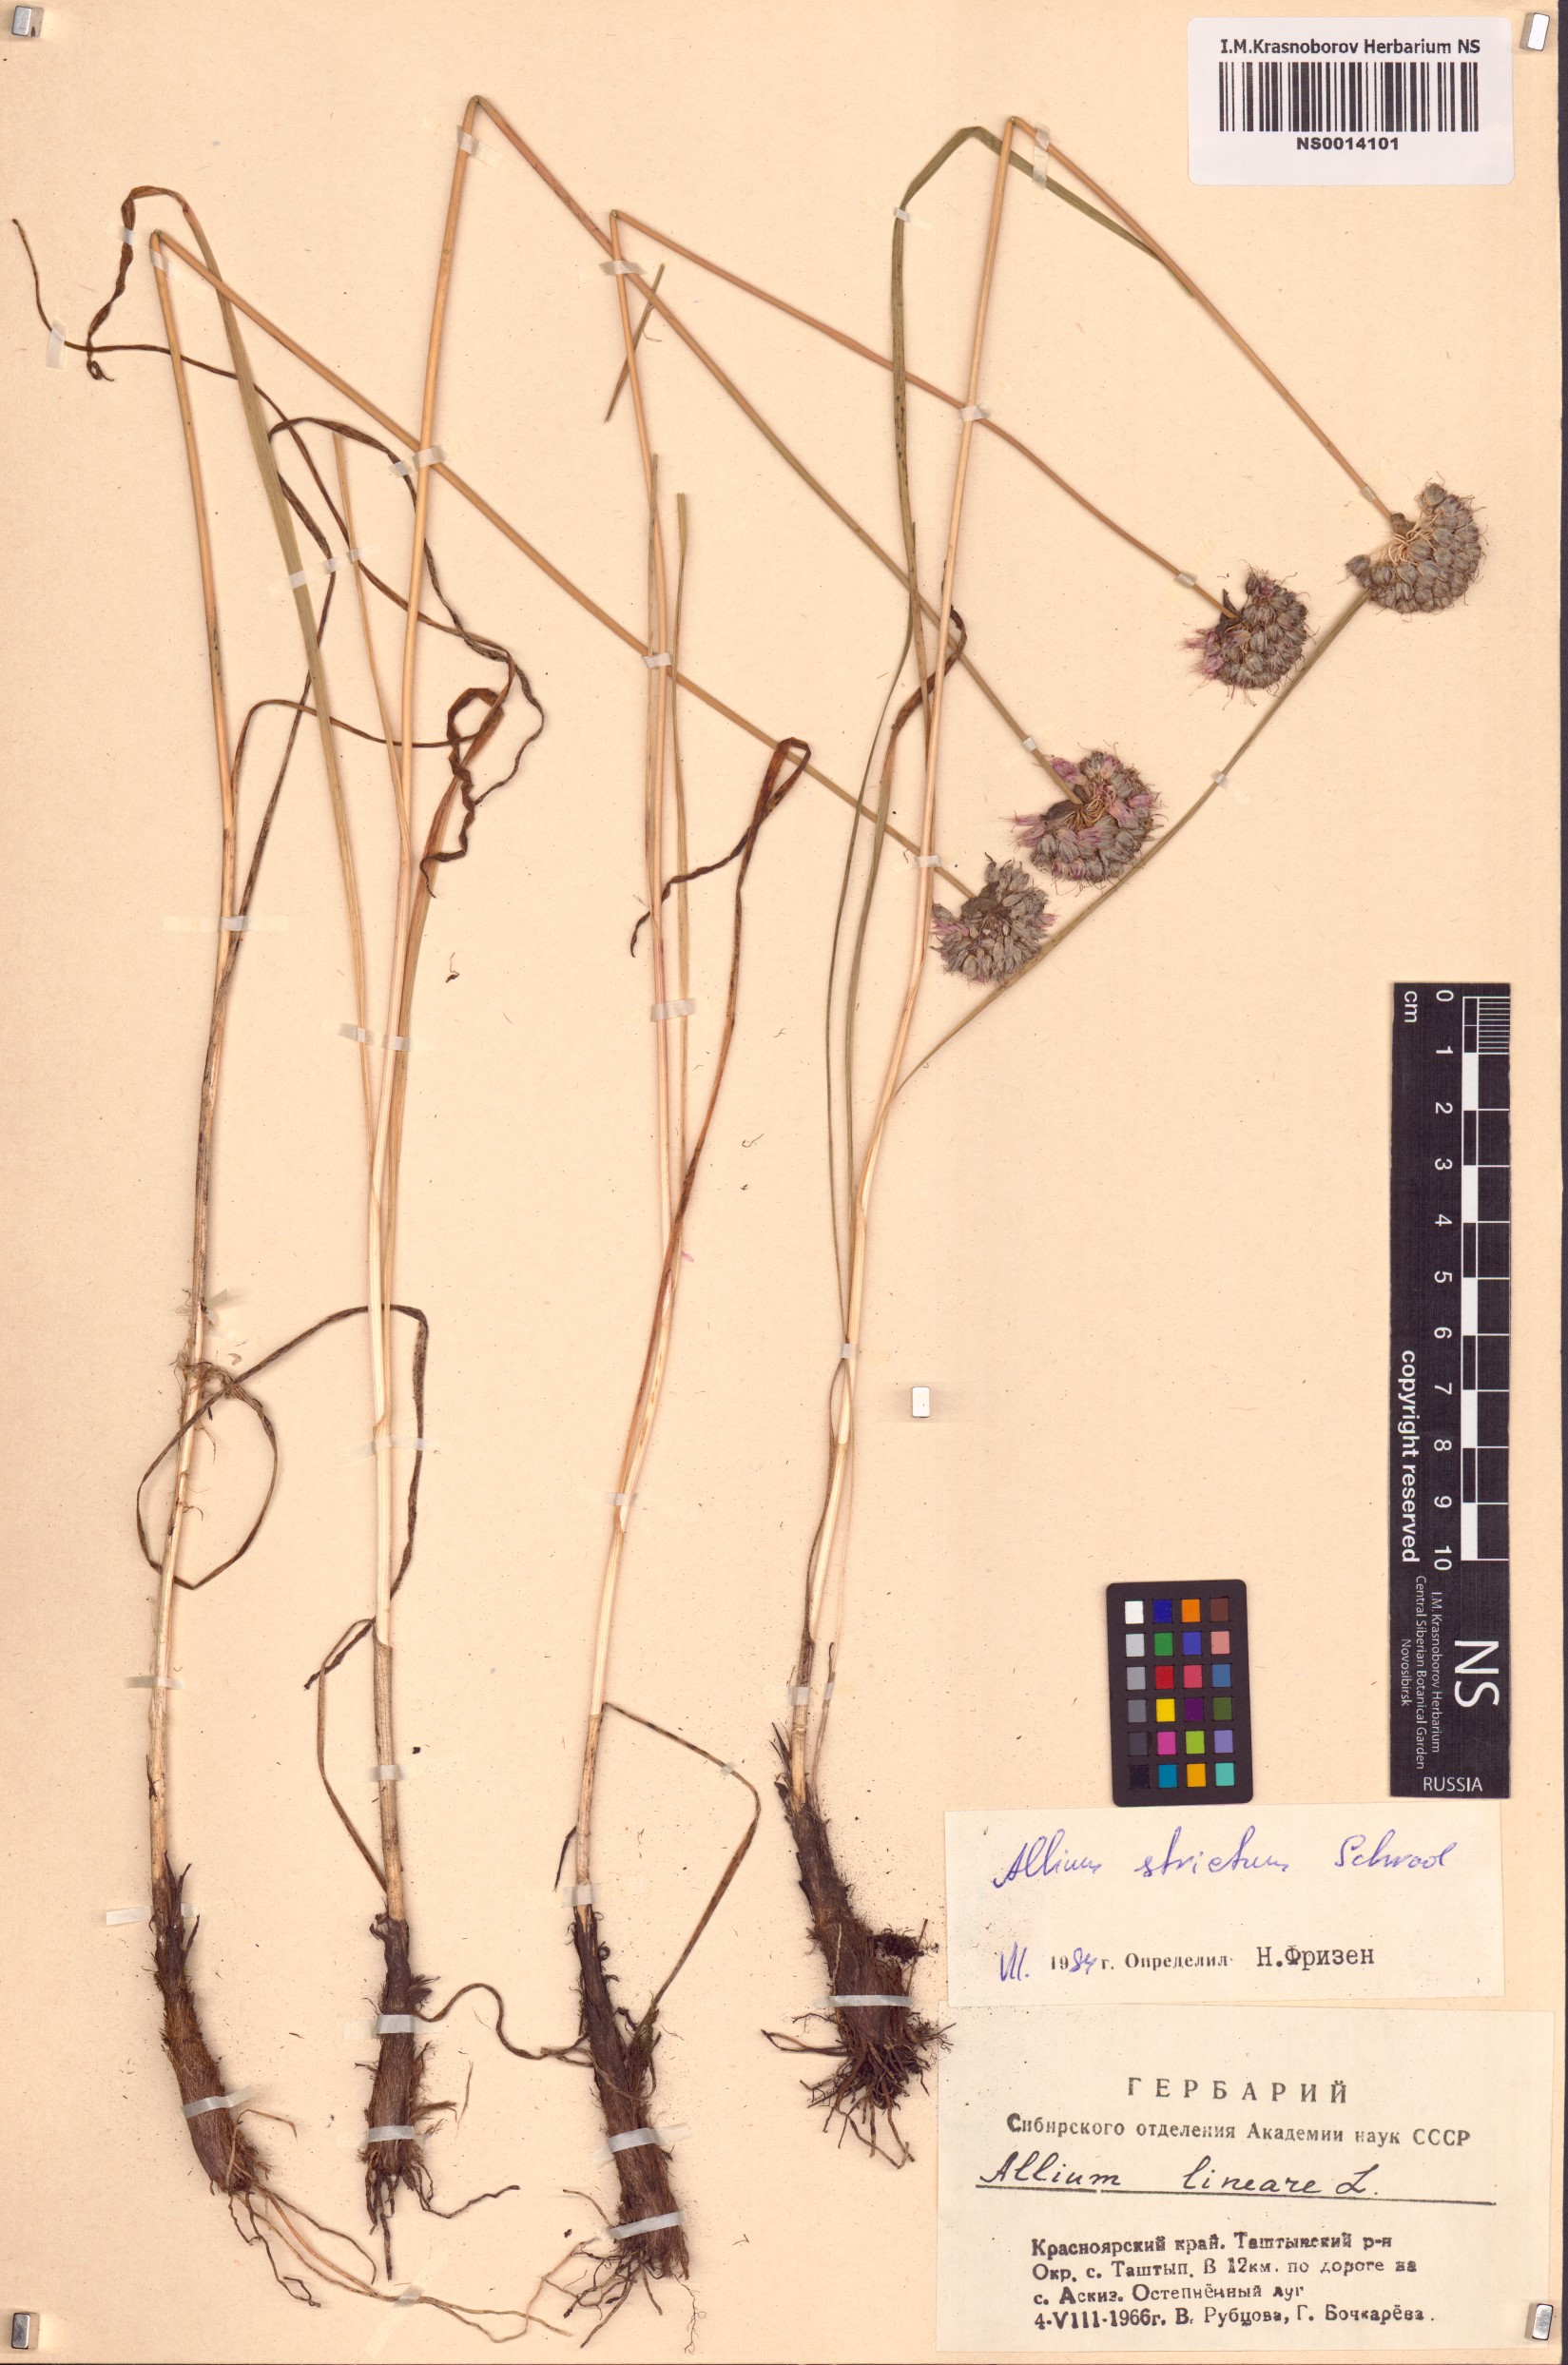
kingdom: Plantae
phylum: Tracheophyta
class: Liliopsida
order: Asparagales
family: Amaryllidaceae
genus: Allium
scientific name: Allium strictum
